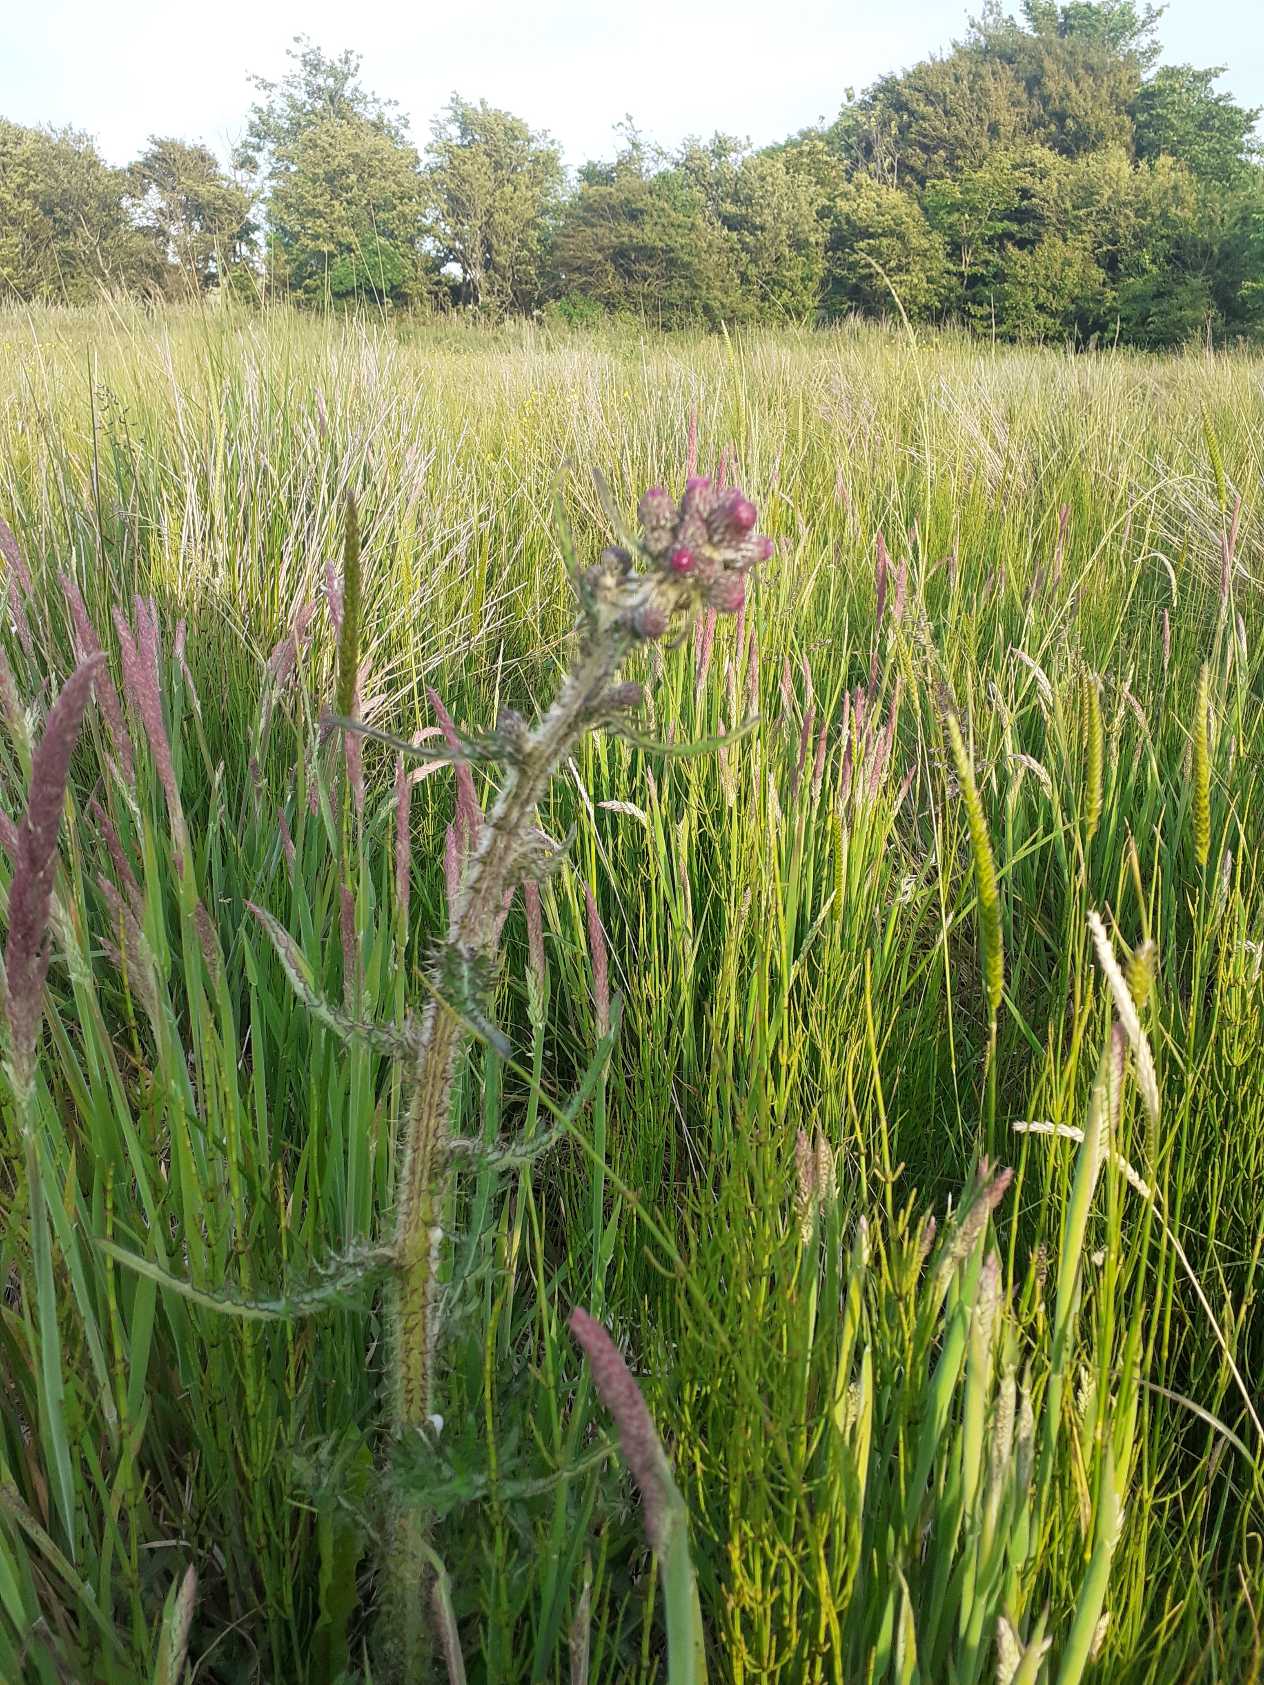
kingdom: Plantae
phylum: Tracheophyta
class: Magnoliopsida
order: Asterales
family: Asteraceae
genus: Cirsium
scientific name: Cirsium palustre
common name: Kær-tidsel
